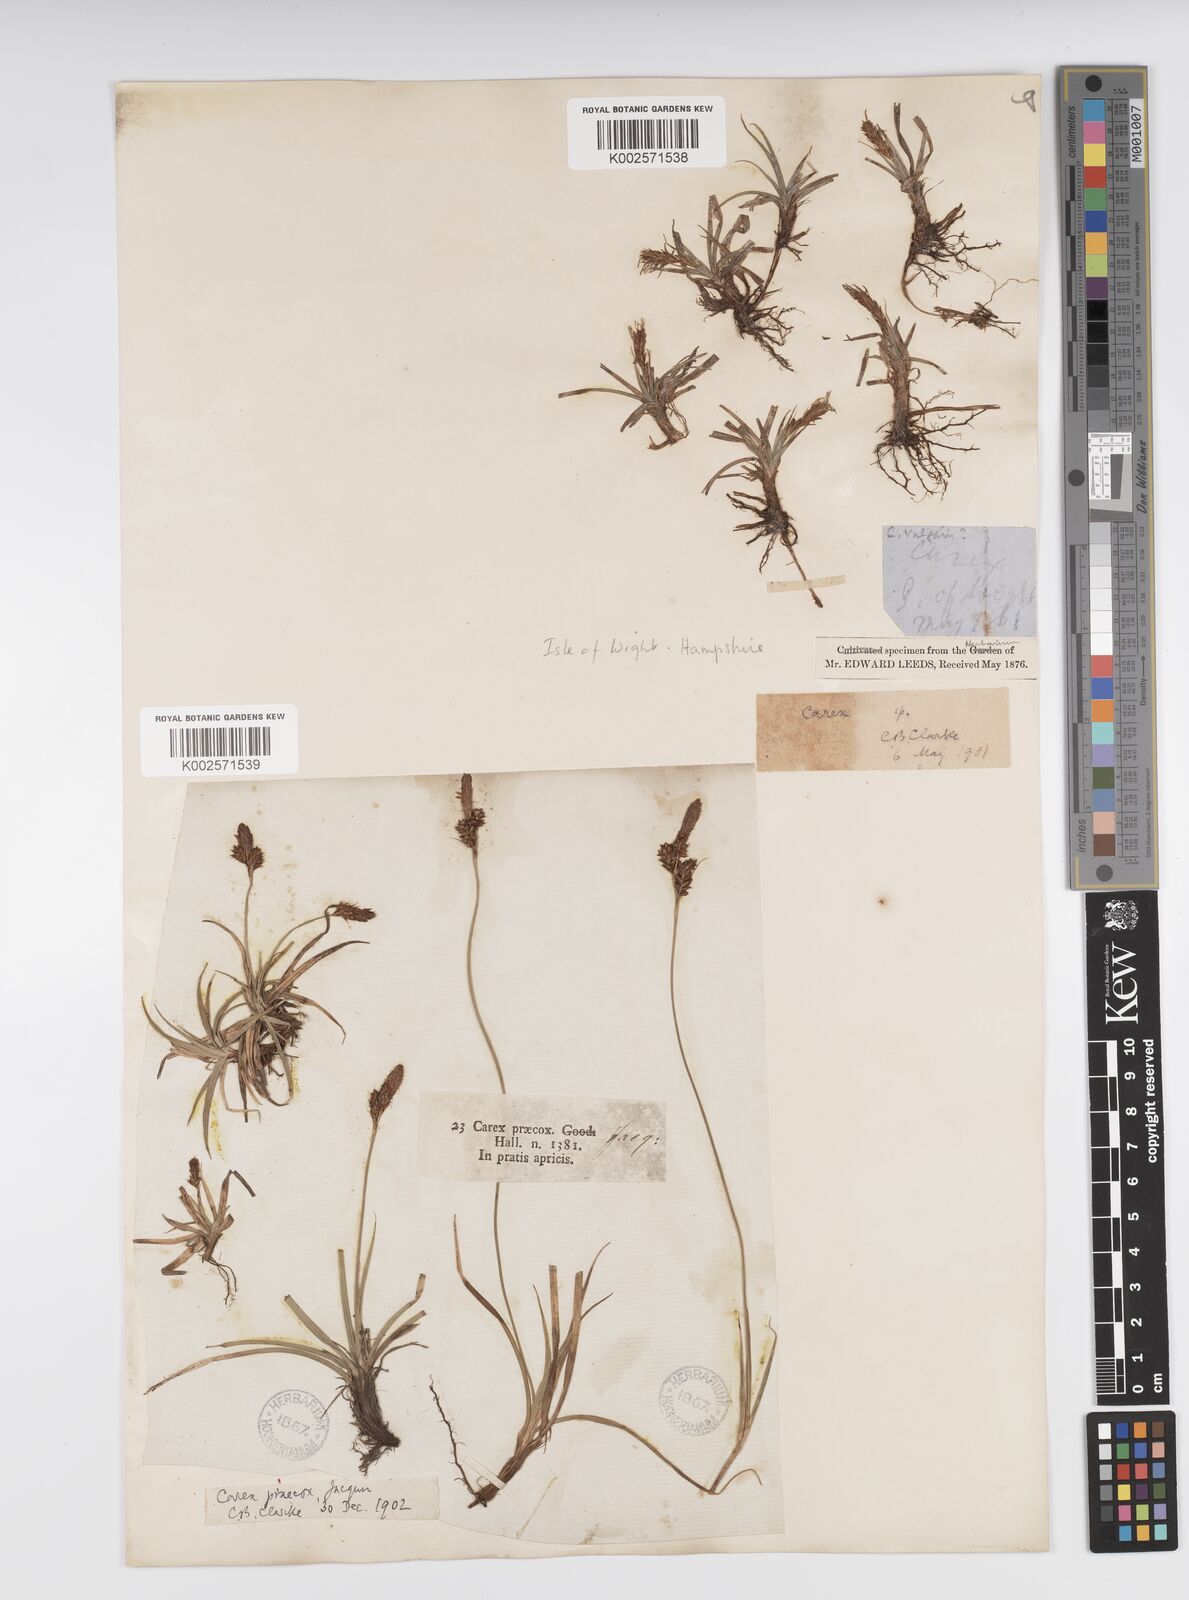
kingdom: Plantae
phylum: Tracheophyta
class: Liliopsida
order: Poales
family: Cyperaceae
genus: Carex
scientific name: Carex caryophyllea
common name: Spring sedge
